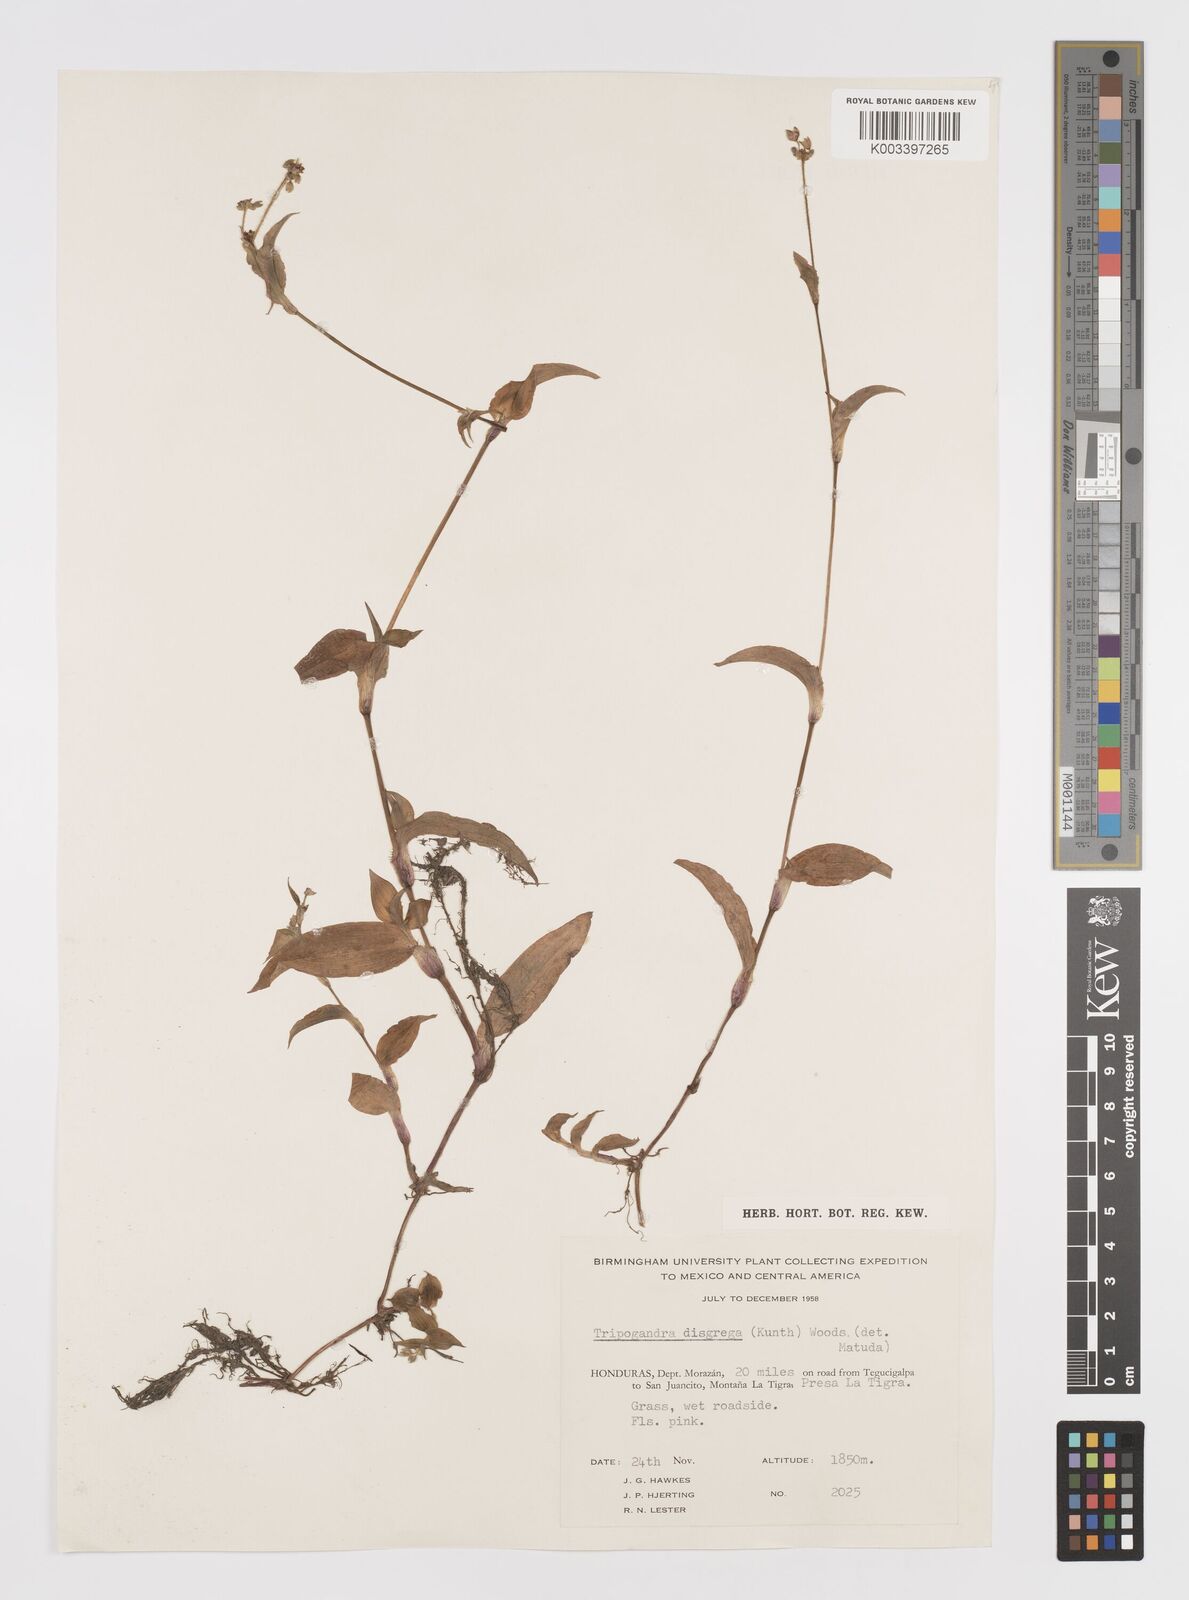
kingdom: Plantae
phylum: Tracheophyta
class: Liliopsida
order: Commelinales
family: Commelinaceae
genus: Callisia
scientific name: Callisia purpurascens
